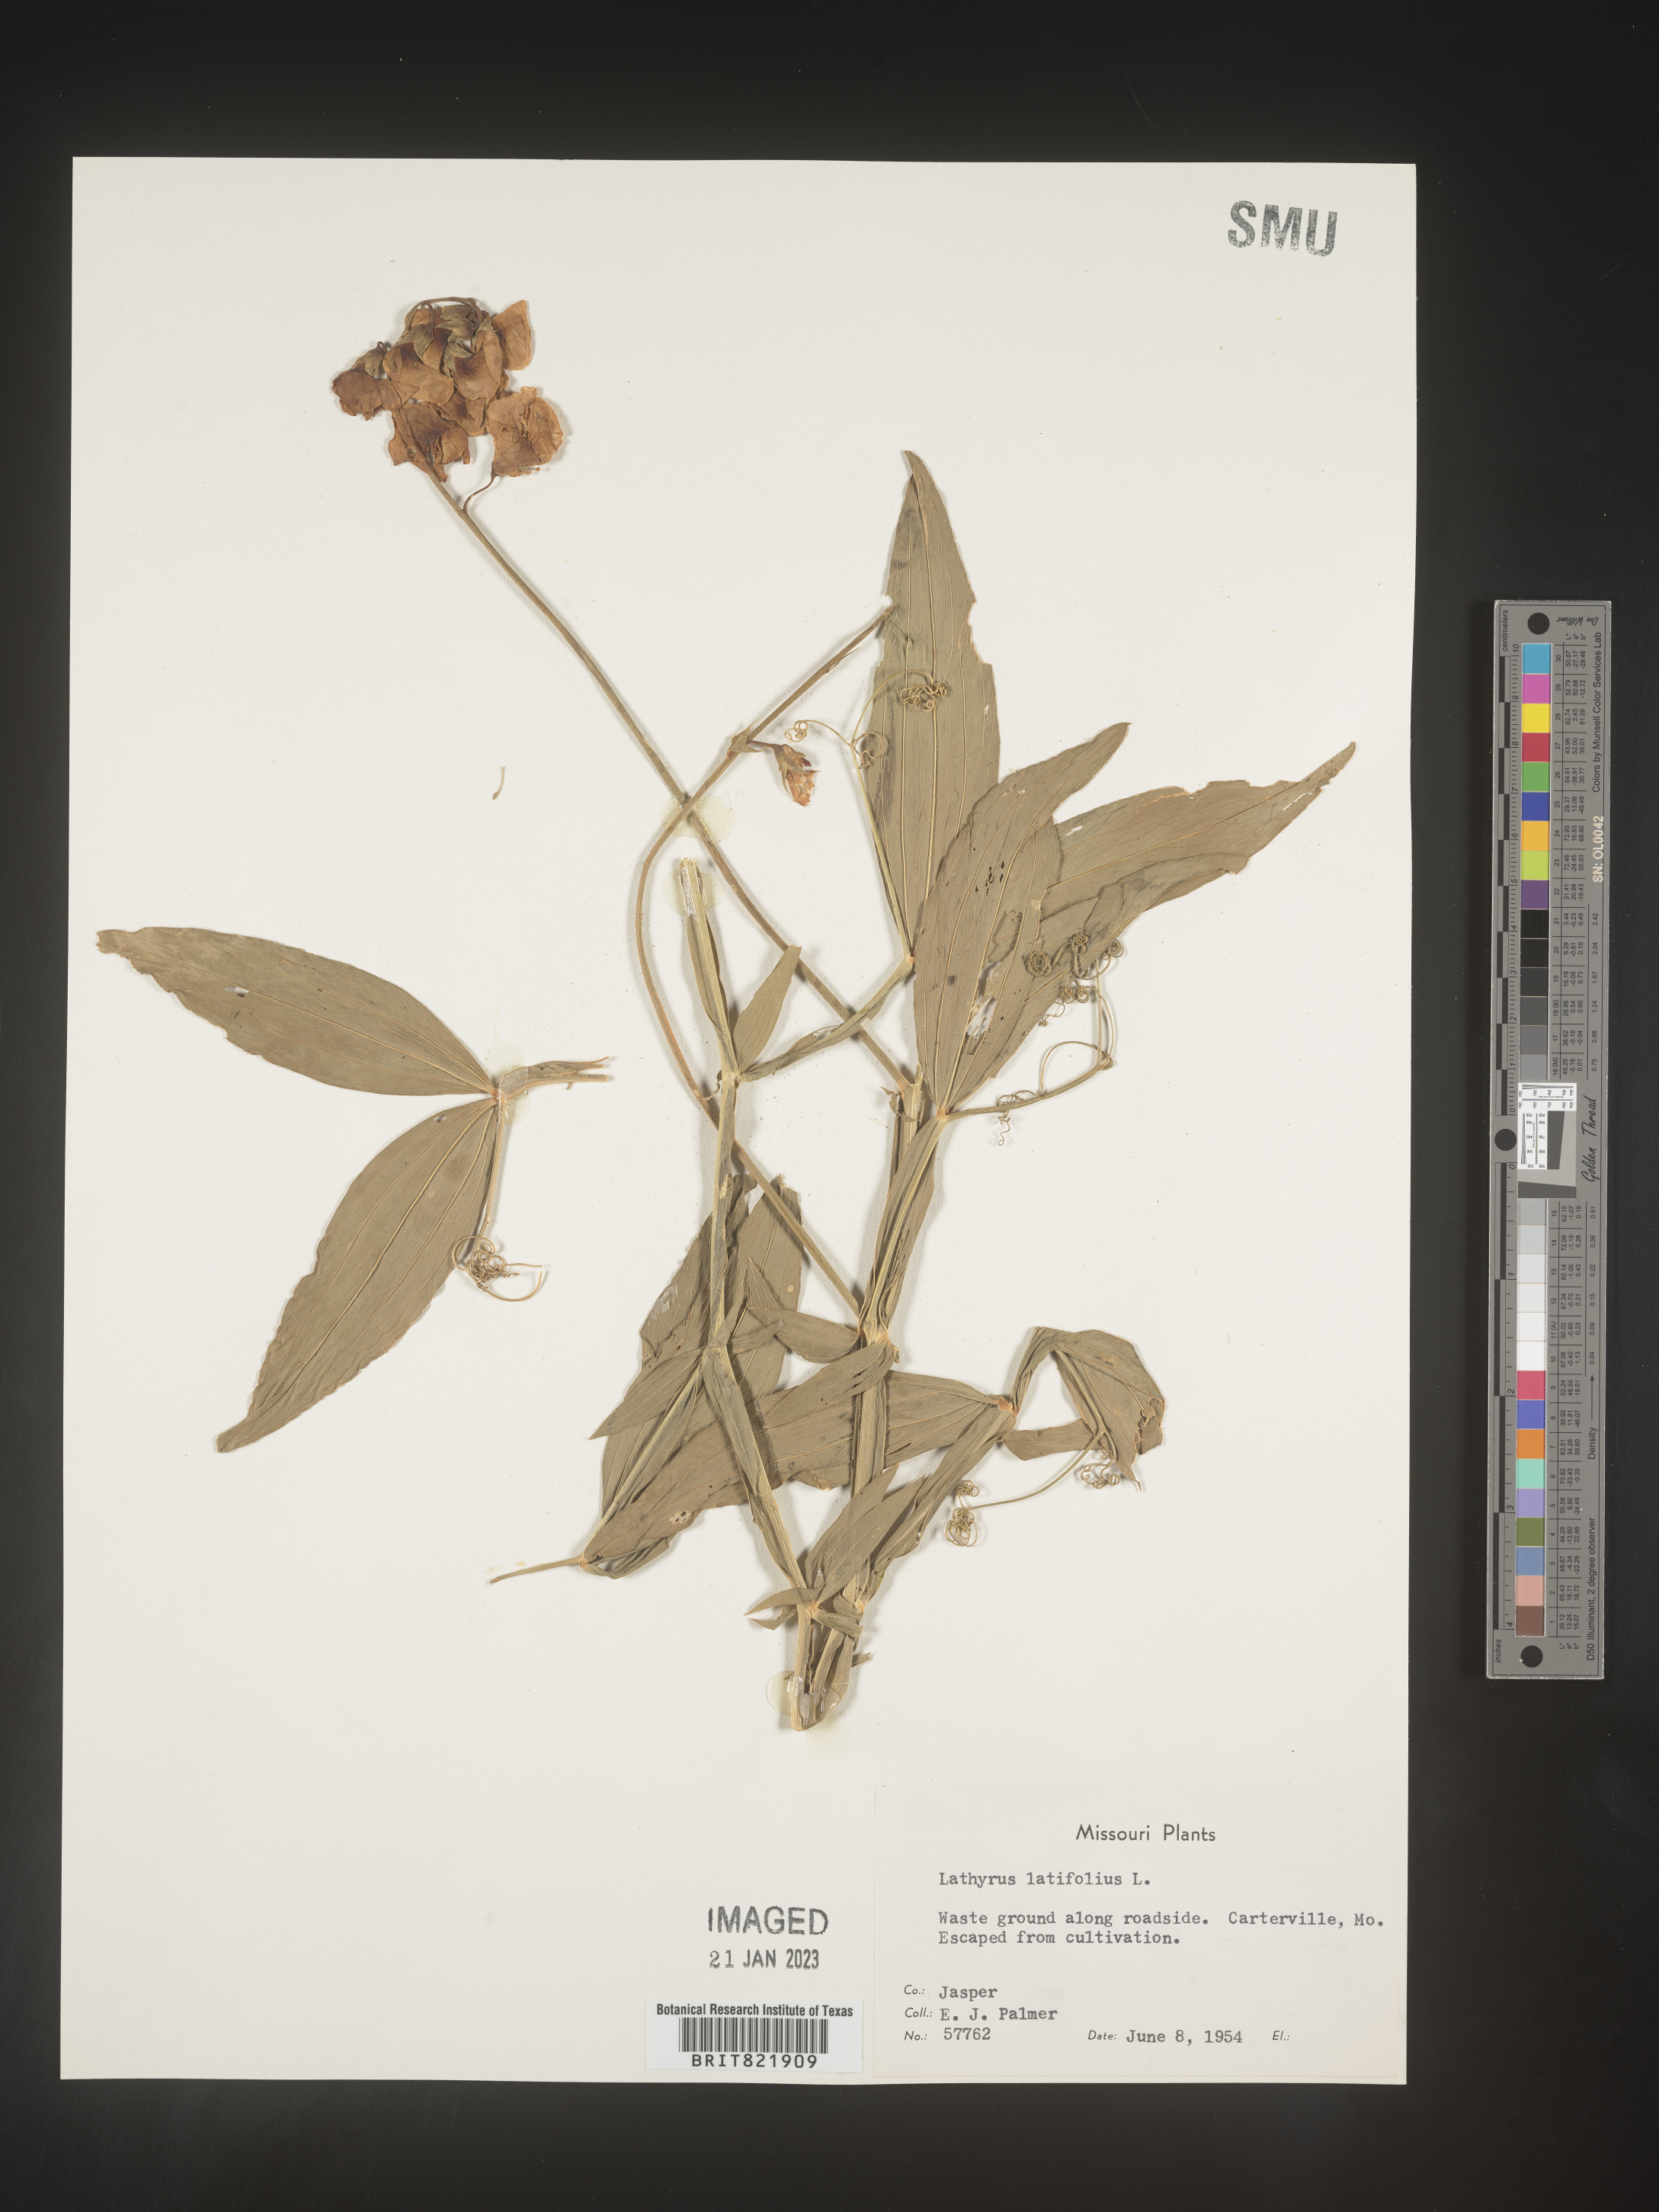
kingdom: Plantae
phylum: Tracheophyta
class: Magnoliopsida
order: Fabales
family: Fabaceae
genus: Lathyrus
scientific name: Lathyrus latifolius
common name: Perennial pea
